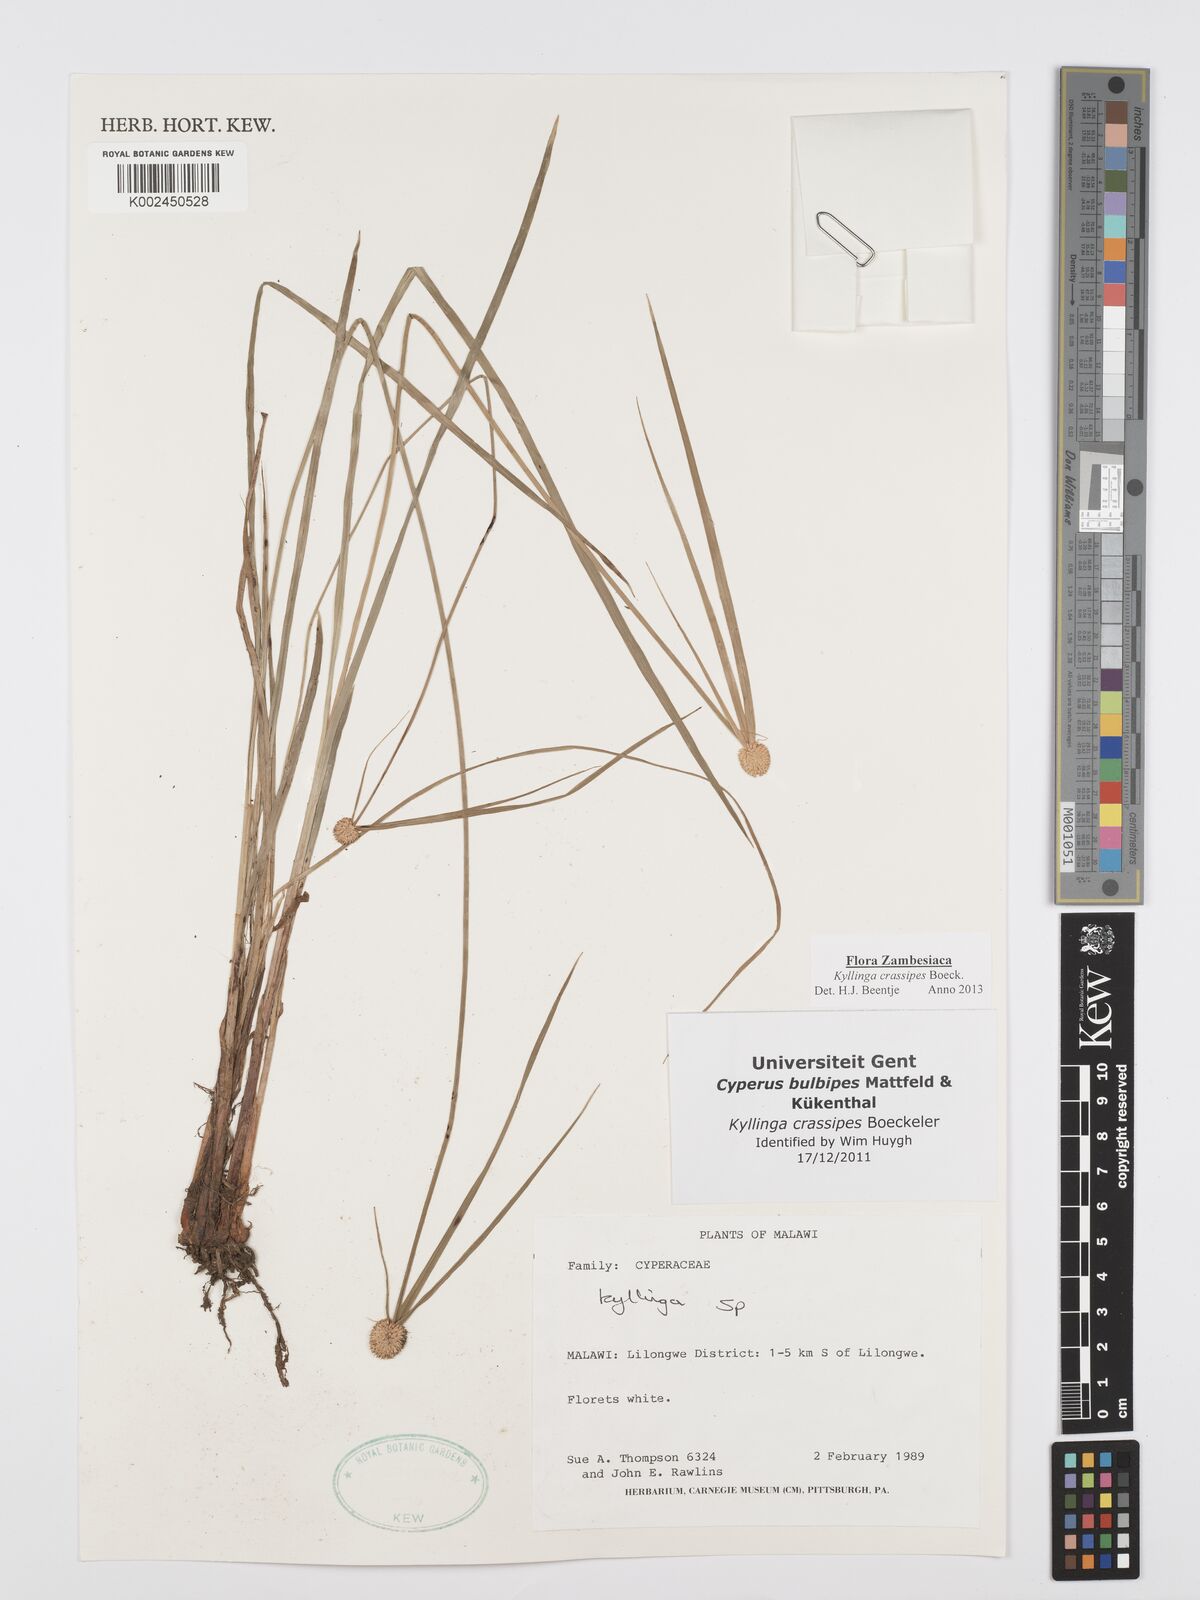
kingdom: Plantae
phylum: Tracheophyta
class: Liliopsida
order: Poales
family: Cyperaceae
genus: Cyperus
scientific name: Cyperus crassipes
